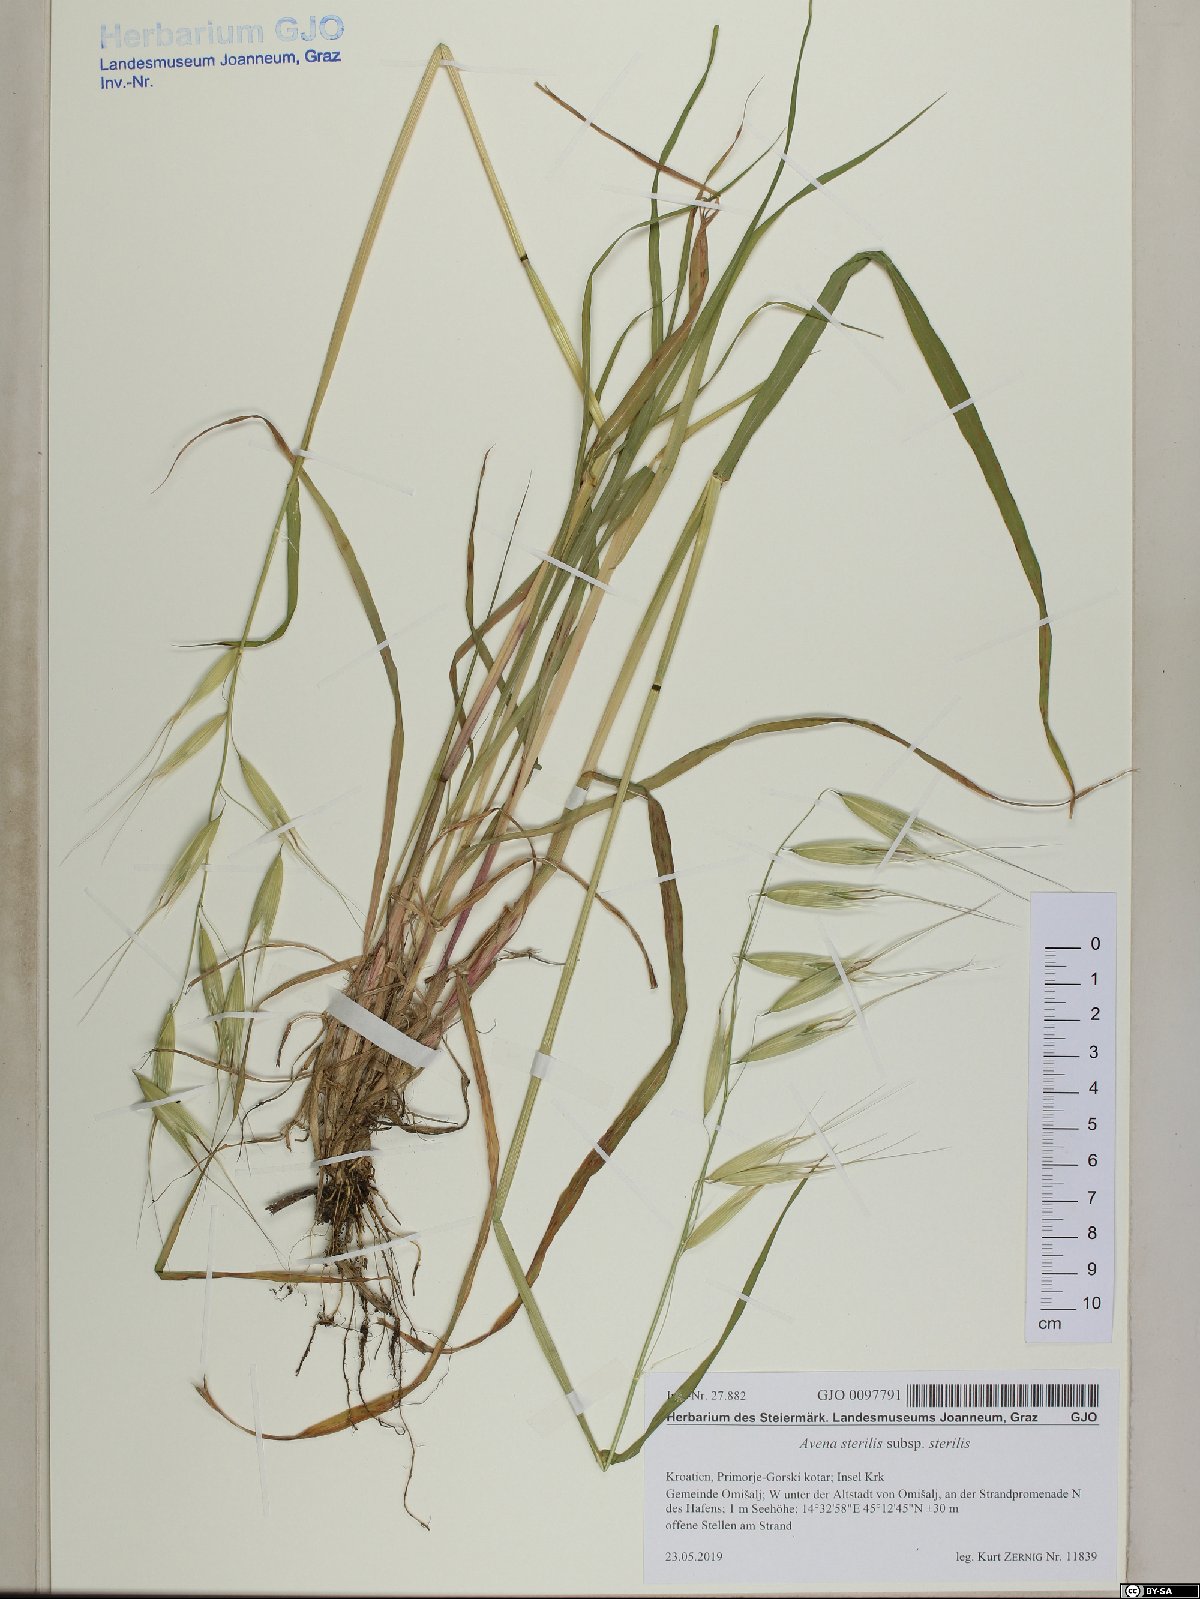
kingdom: Plantae
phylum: Tracheophyta
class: Liliopsida
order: Poales
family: Poaceae
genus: Avena
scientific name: Avena sterilis
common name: Animated oat
